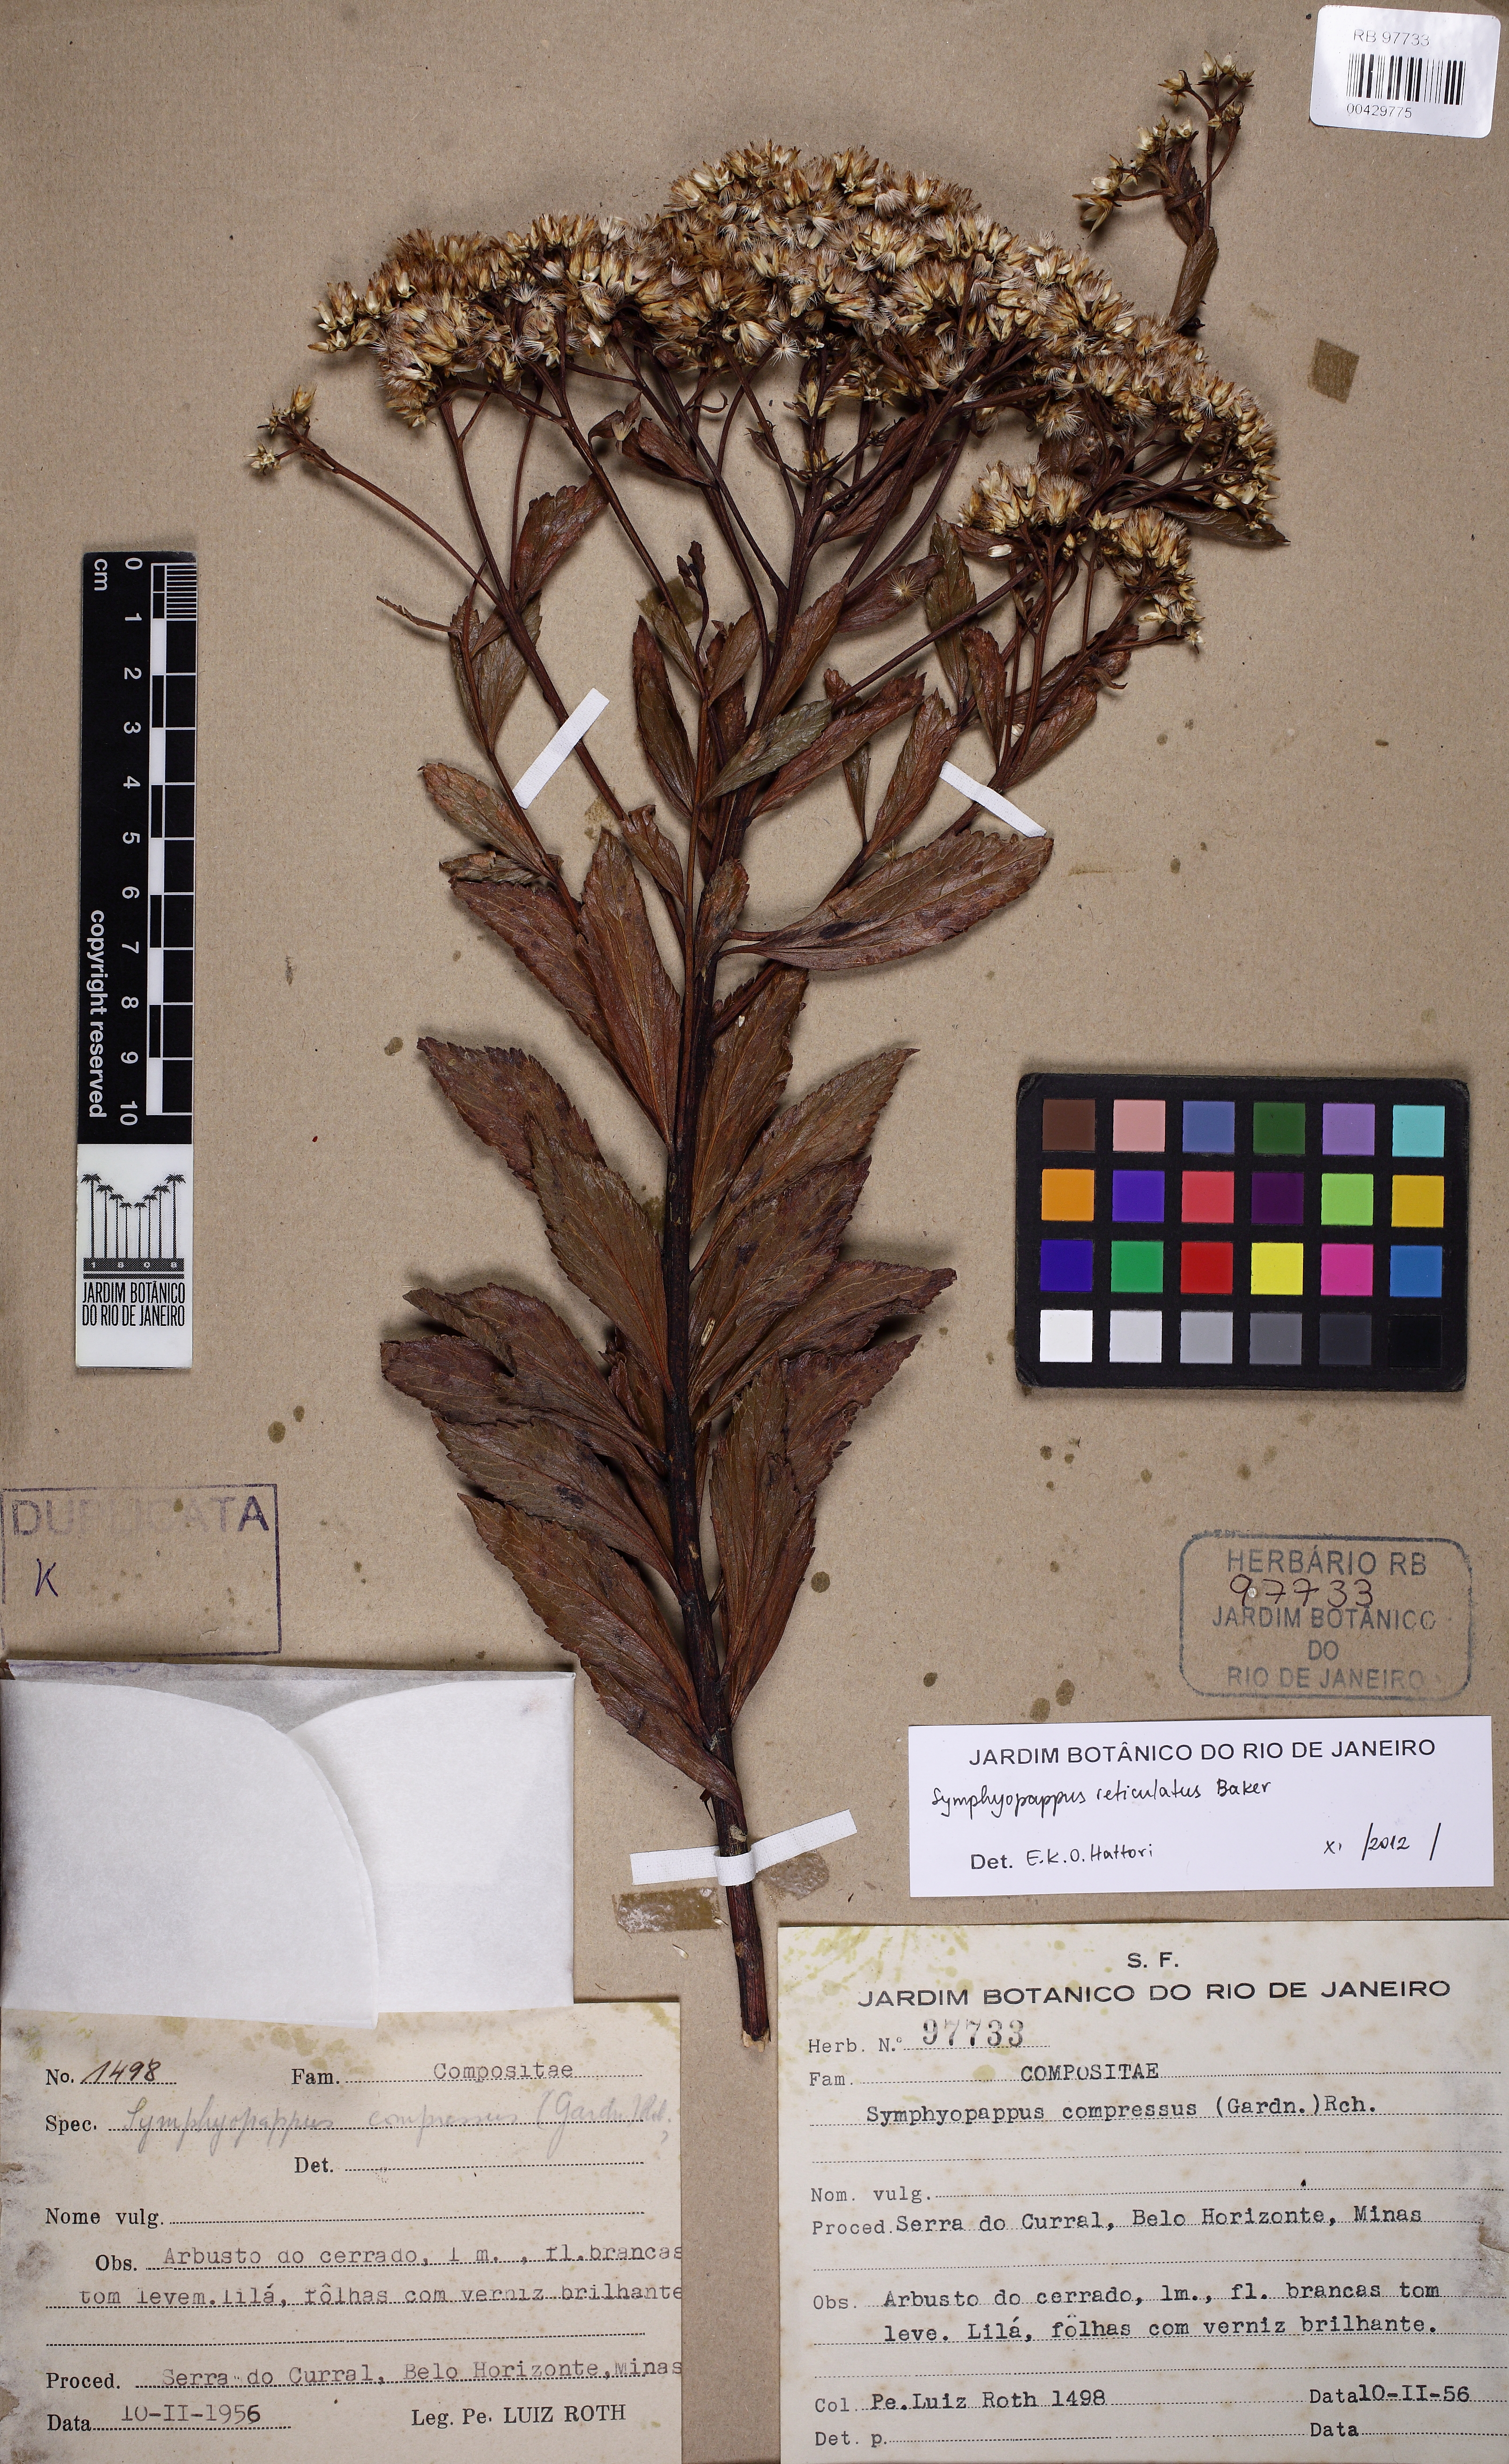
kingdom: Plantae
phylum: Tracheophyta
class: Magnoliopsida
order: Asterales
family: Asteraceae
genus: Symphyopappus
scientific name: Symphyopappus reticulatus
